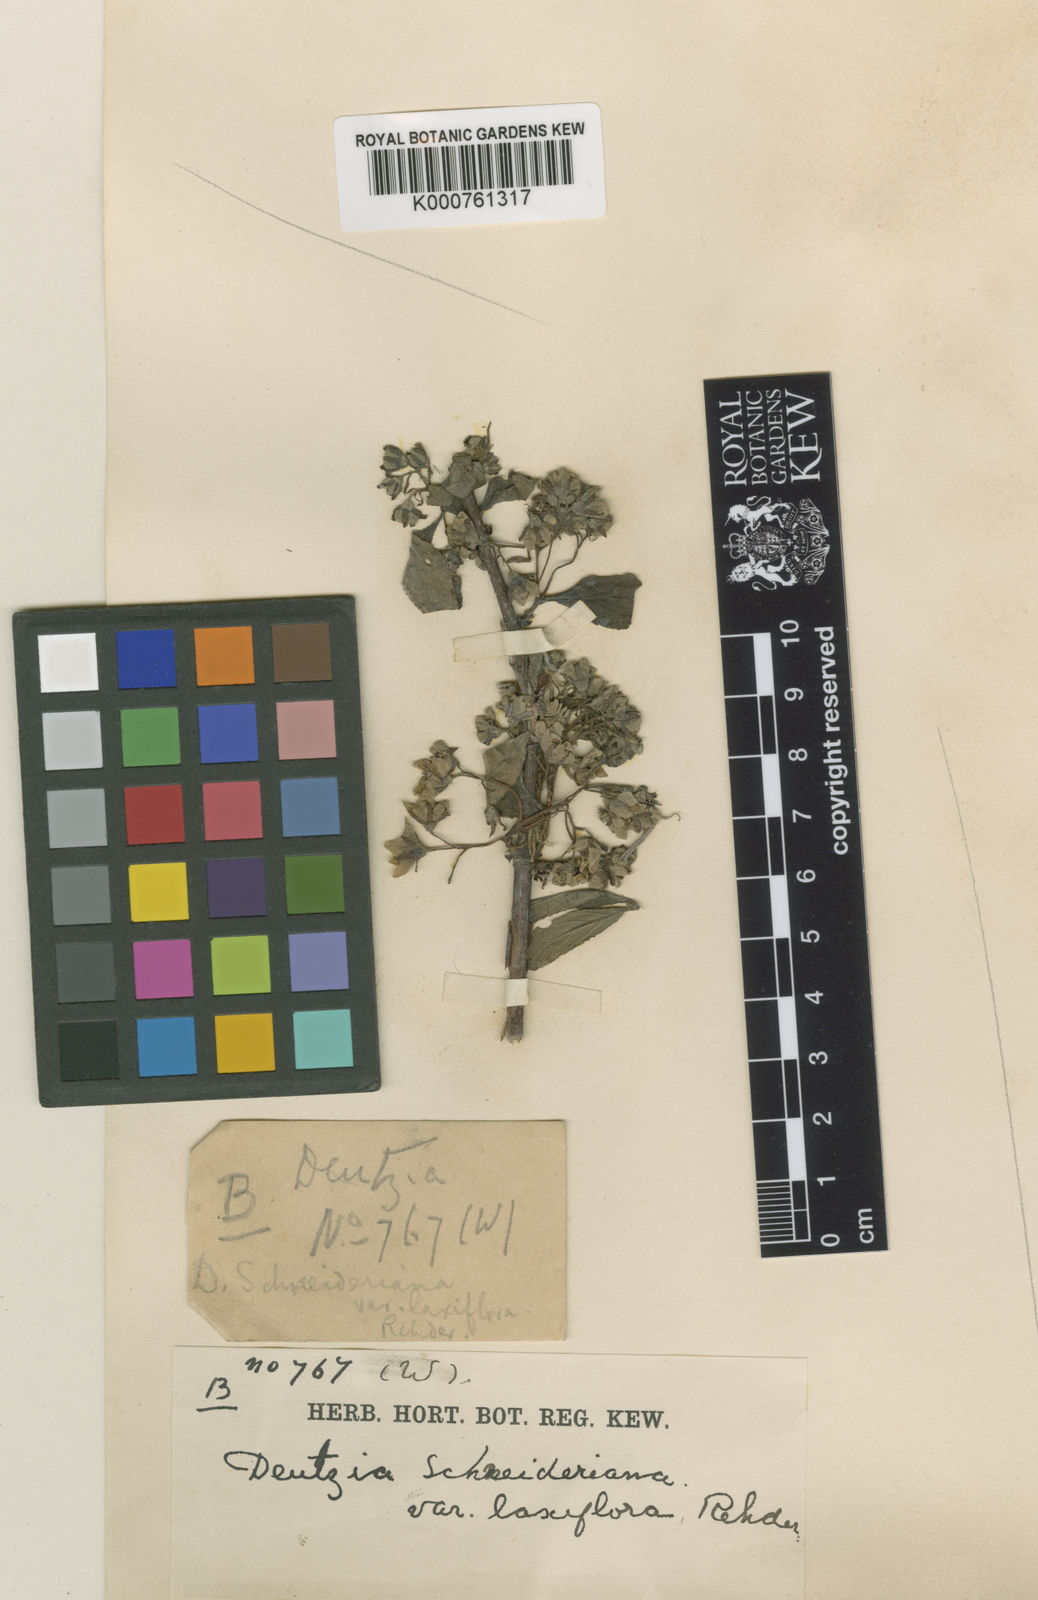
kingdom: Plantae
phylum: Tracheophyta
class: Magnoliopsida
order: Cornales
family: Hydrangeaceae
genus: Deutzia
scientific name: Deutzia schneideriana
